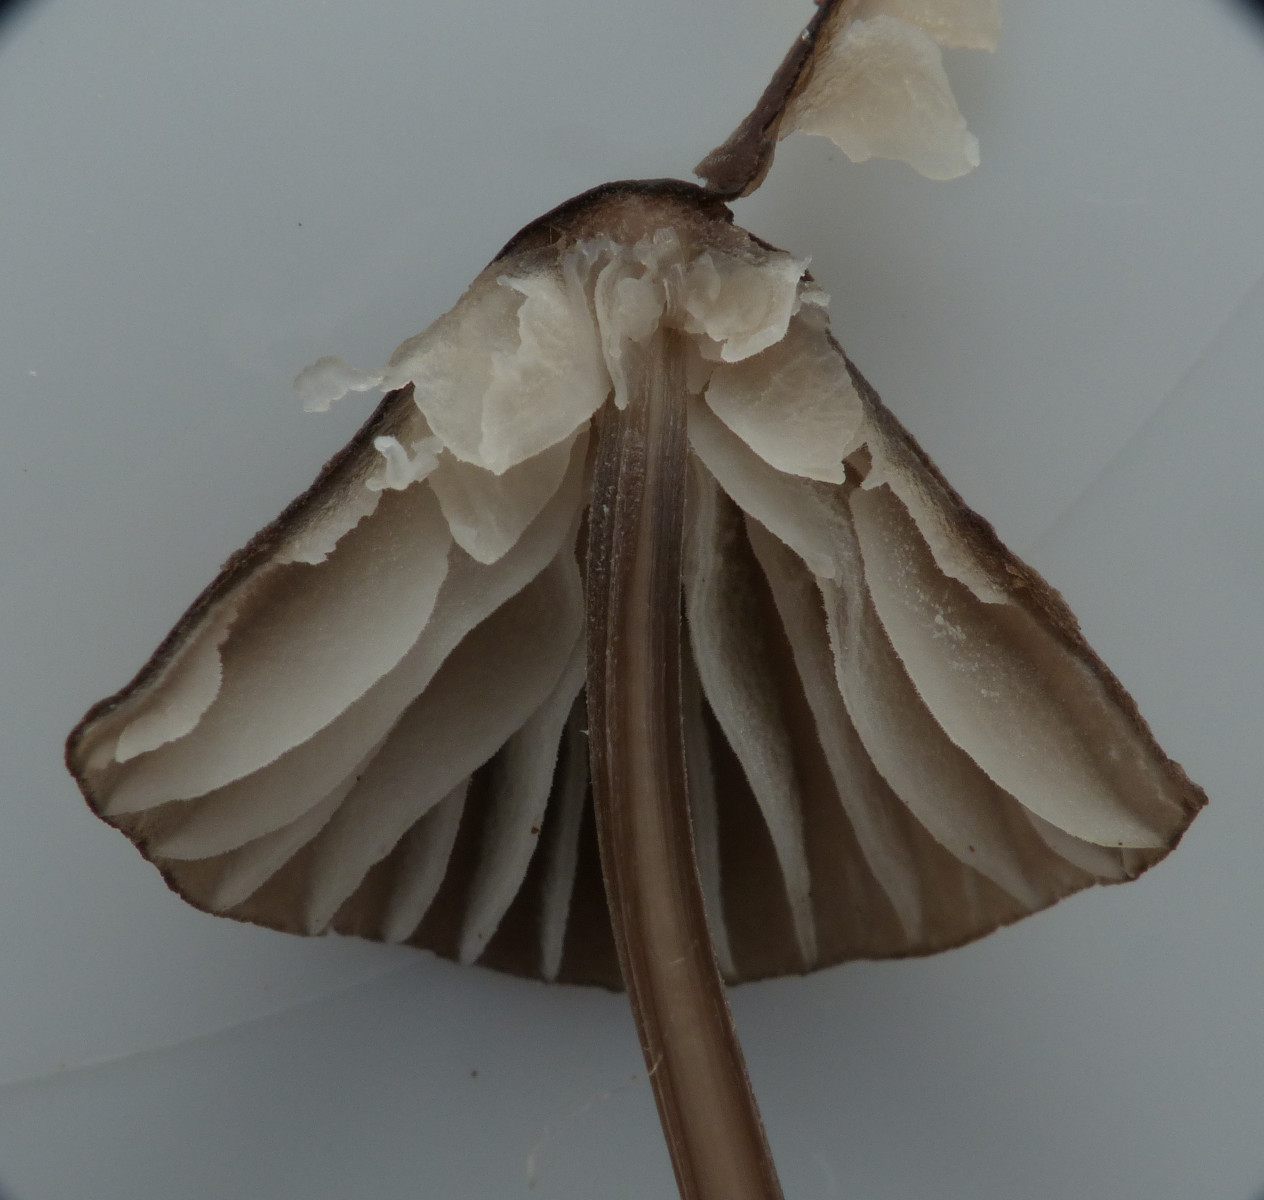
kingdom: Fungi
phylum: Basidiomycota
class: Agaricomycetes
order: Agaricales
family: Mycenaceae
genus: Mycena
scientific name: Mycena galopus
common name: hvidmælket huesvamp
